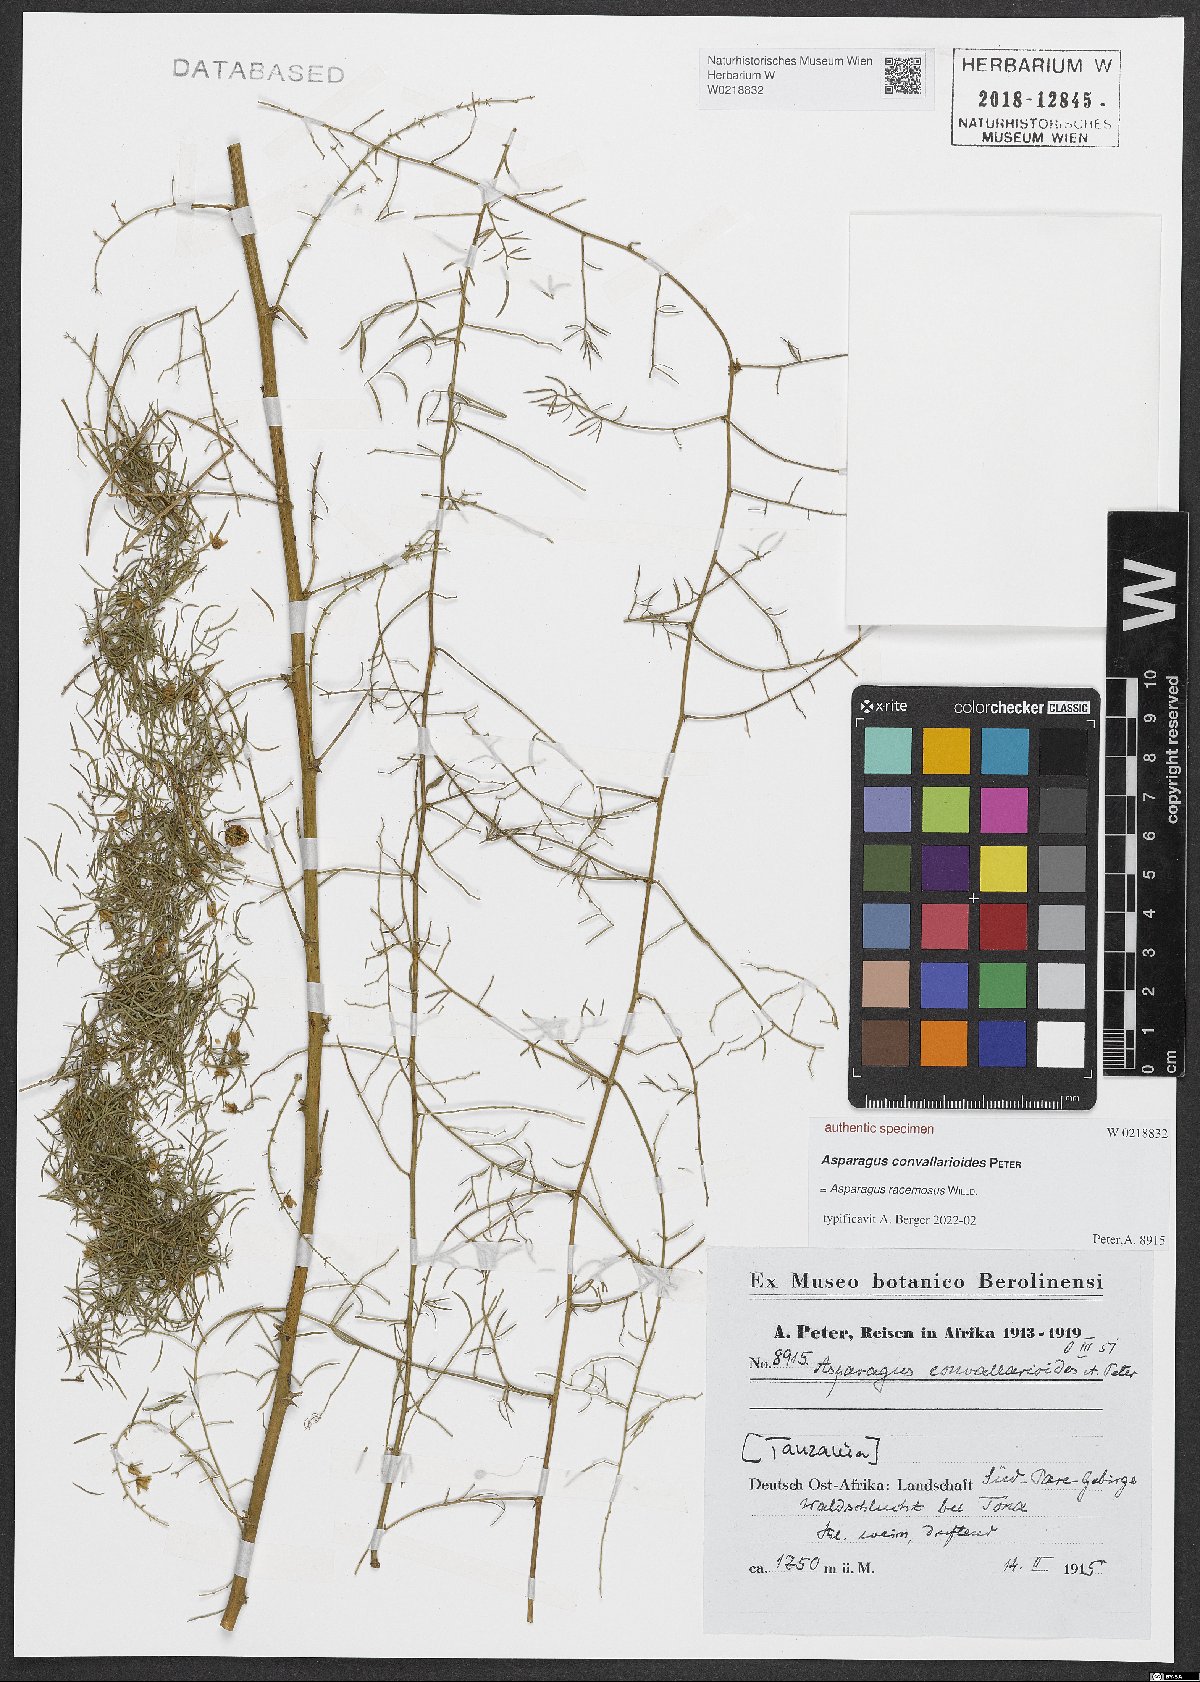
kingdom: Plantae
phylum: Tracheophyta
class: Liliopsida
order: Asparagales
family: Asparagaceae
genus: Asparagus
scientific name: Asparagus
